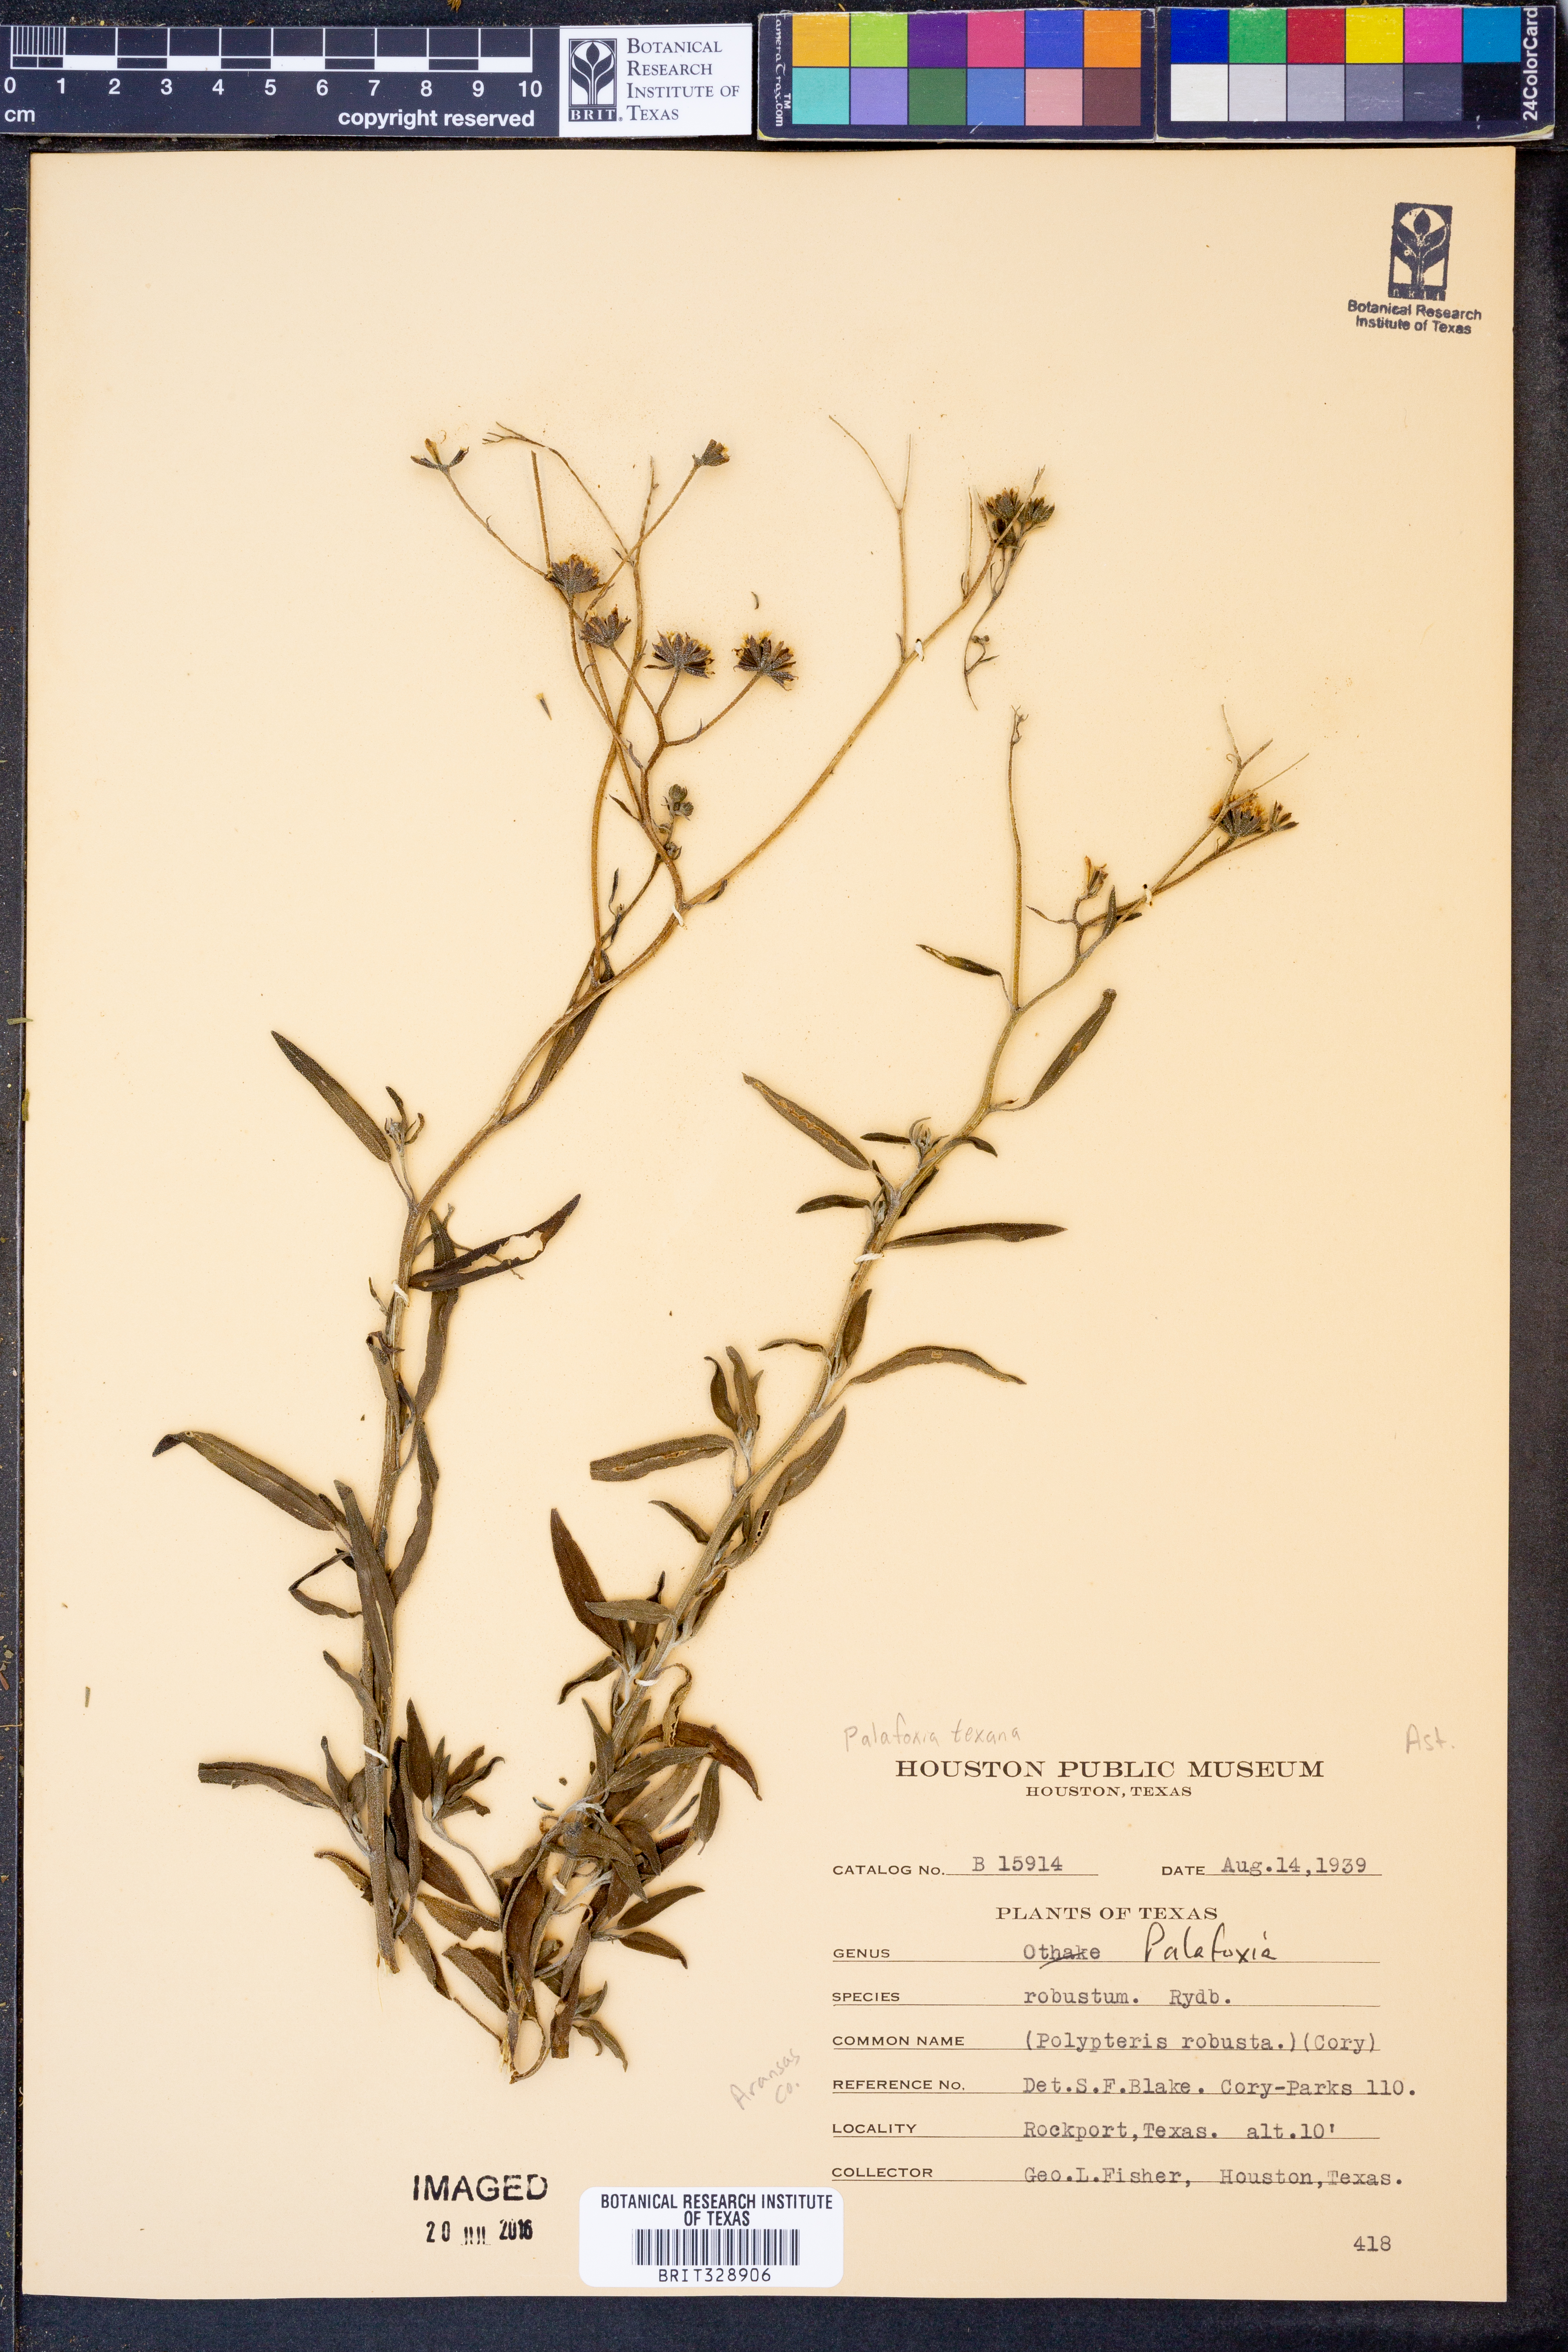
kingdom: Plantae
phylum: Tracheophyta
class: Magnoliopsida
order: Asterales
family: Asteraceae
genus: Palafoxia
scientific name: Palafoxia texana
